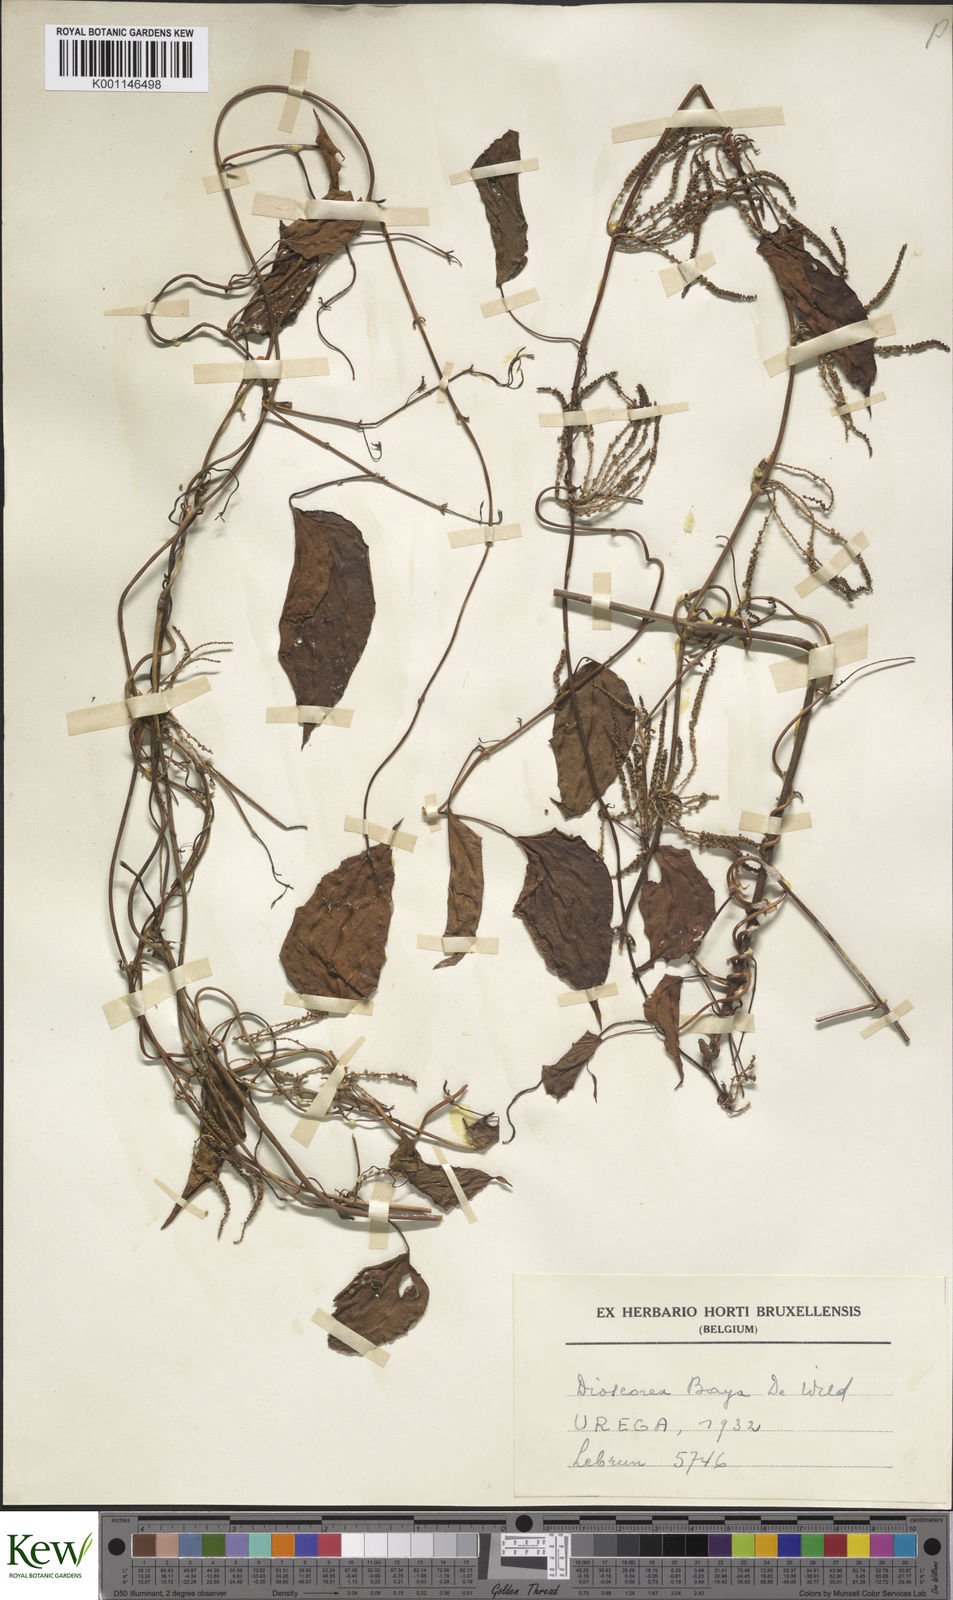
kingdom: Plantae
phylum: Tracheophyta
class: Liliopsida
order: Dioscoreales
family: Dioscoreaceae
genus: Dioscorea
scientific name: Dioscorea baya
